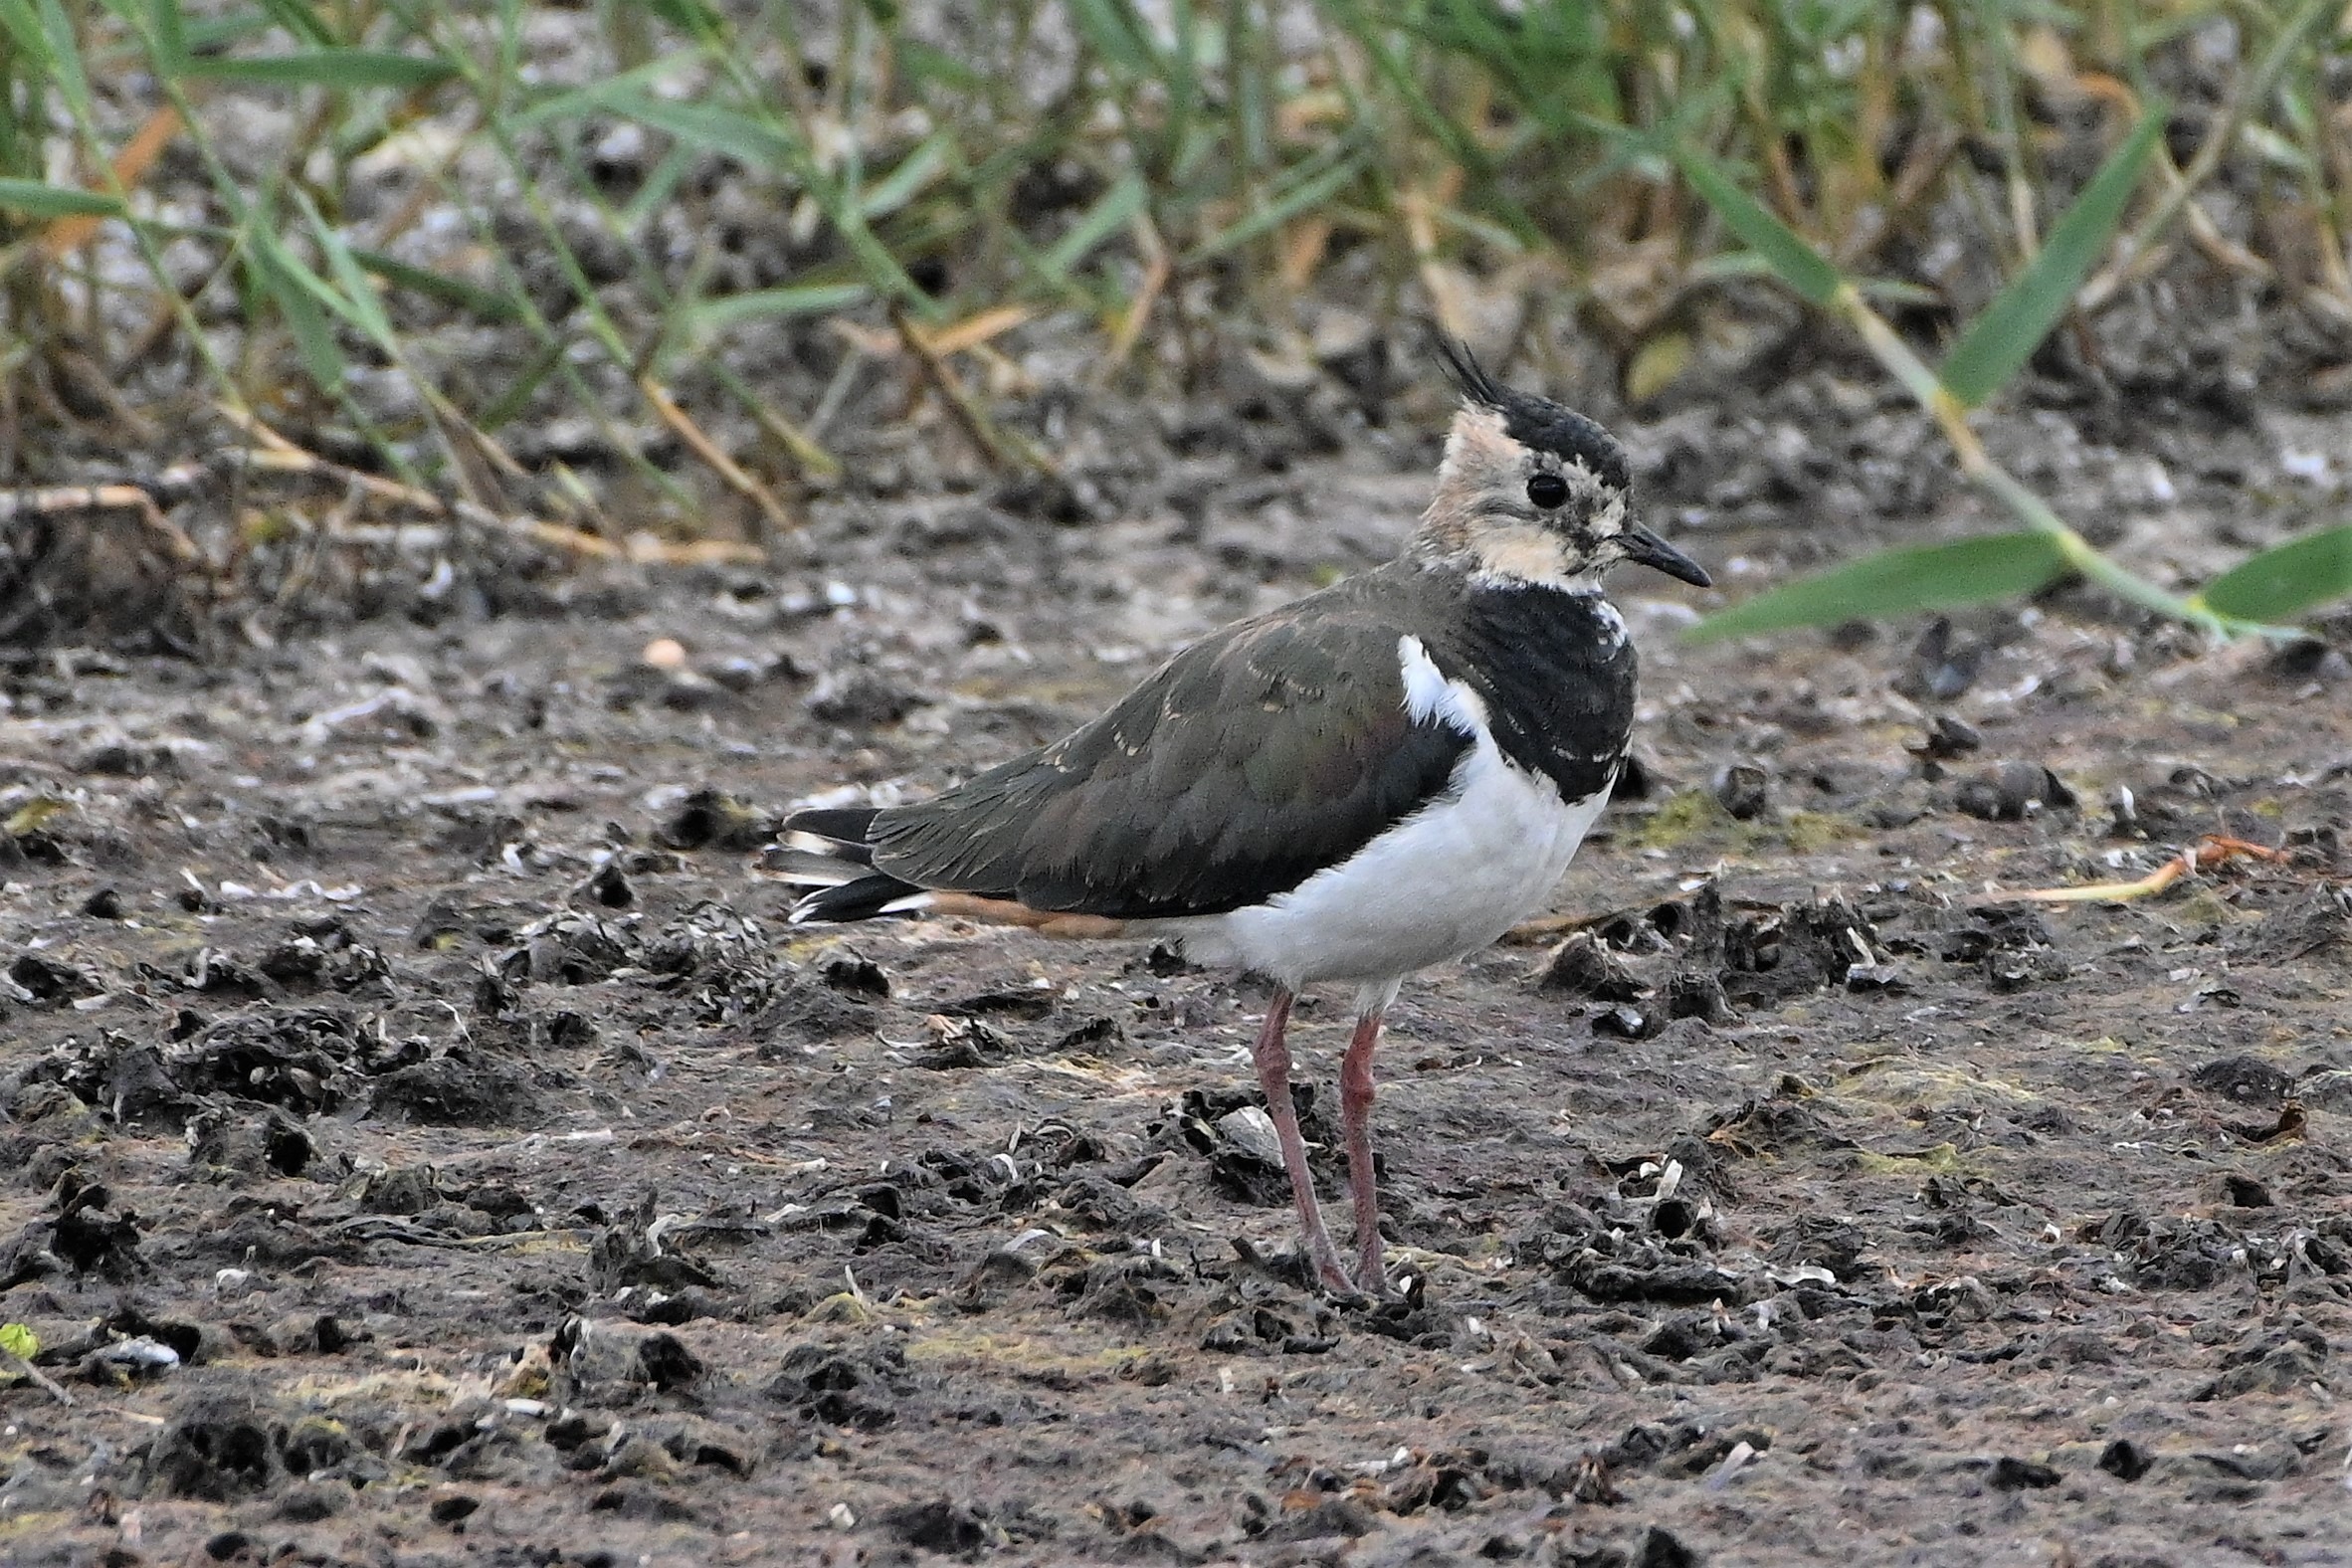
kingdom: Animalia
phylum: Chordata
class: Aves
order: Charadriiformes
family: Charadriidae
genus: Vanellus
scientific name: Vanellus vanellus
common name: Vibe
